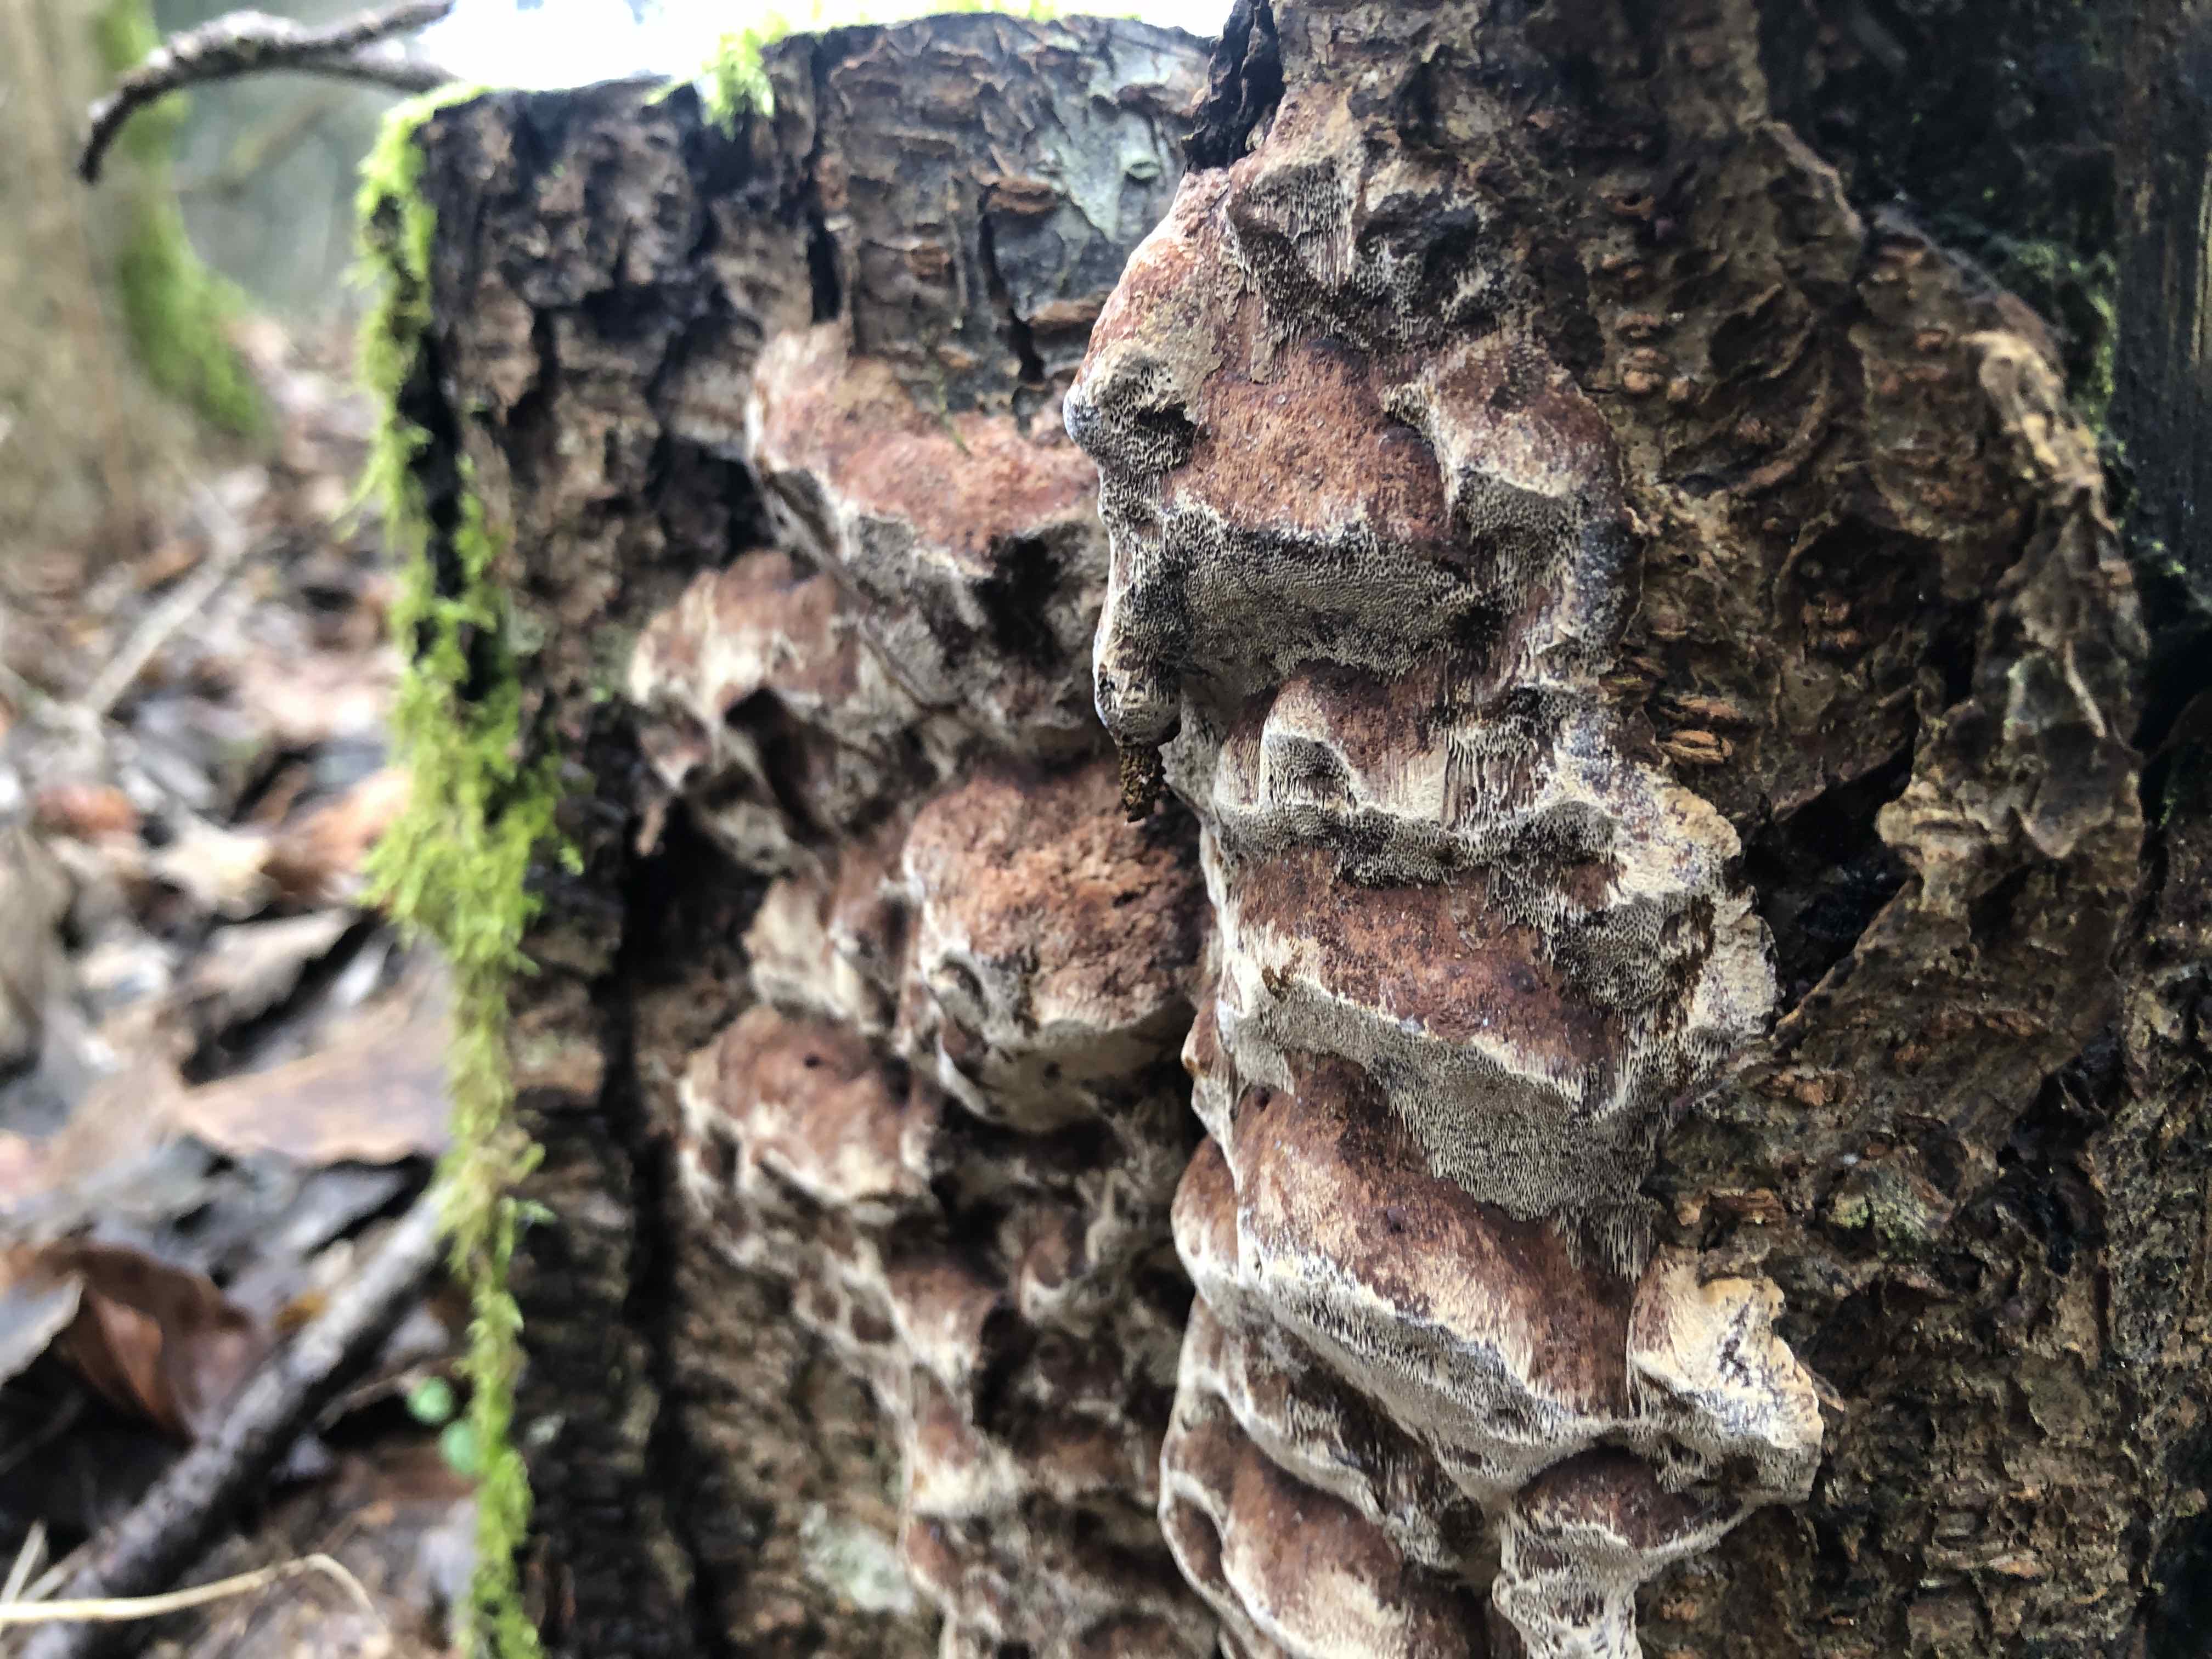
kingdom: Fungi
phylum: Basidiomycota
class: Agaricomycetes
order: Hymenochaetales
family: Hymenochaetaceae
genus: Phellinus
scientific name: Phellinus pomaceus
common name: blomme-ildporesvamp
